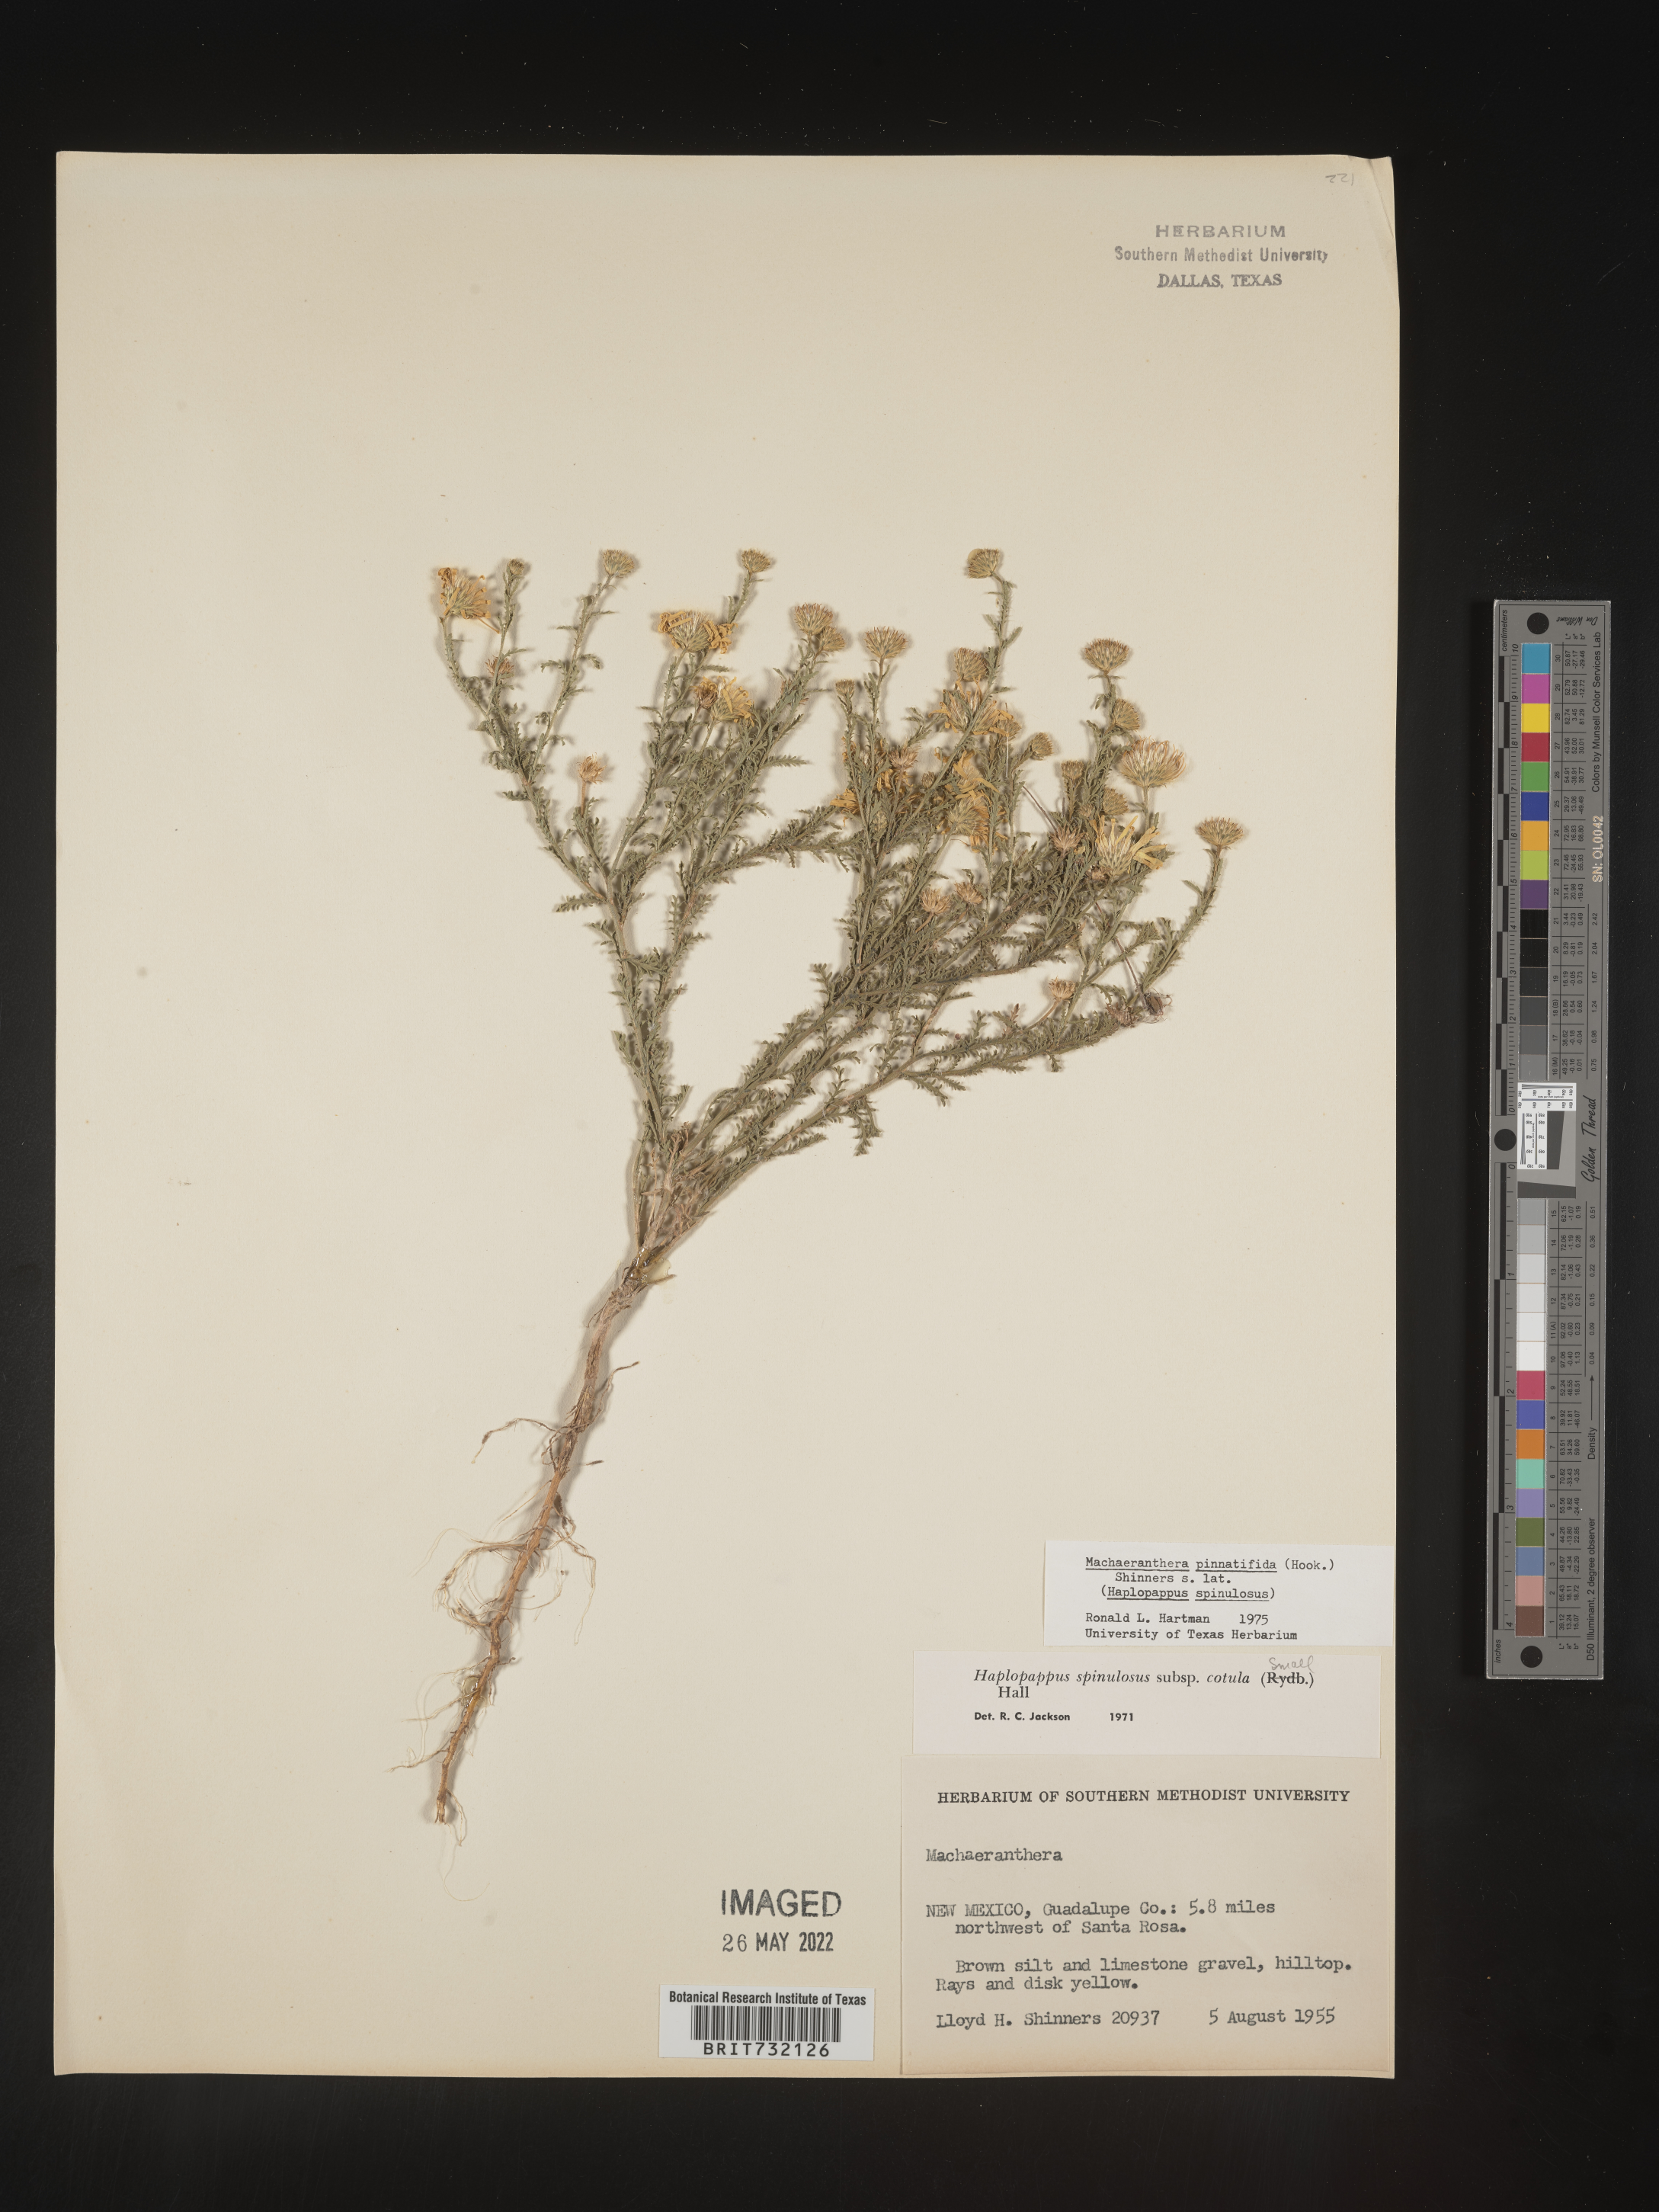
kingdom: Plantae
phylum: Tracheophyta
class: Magnoliopsida
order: Asterales
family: Asteraceae
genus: Xanthisma
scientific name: Xanthisma spinulosum
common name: Spiny goldenweed
